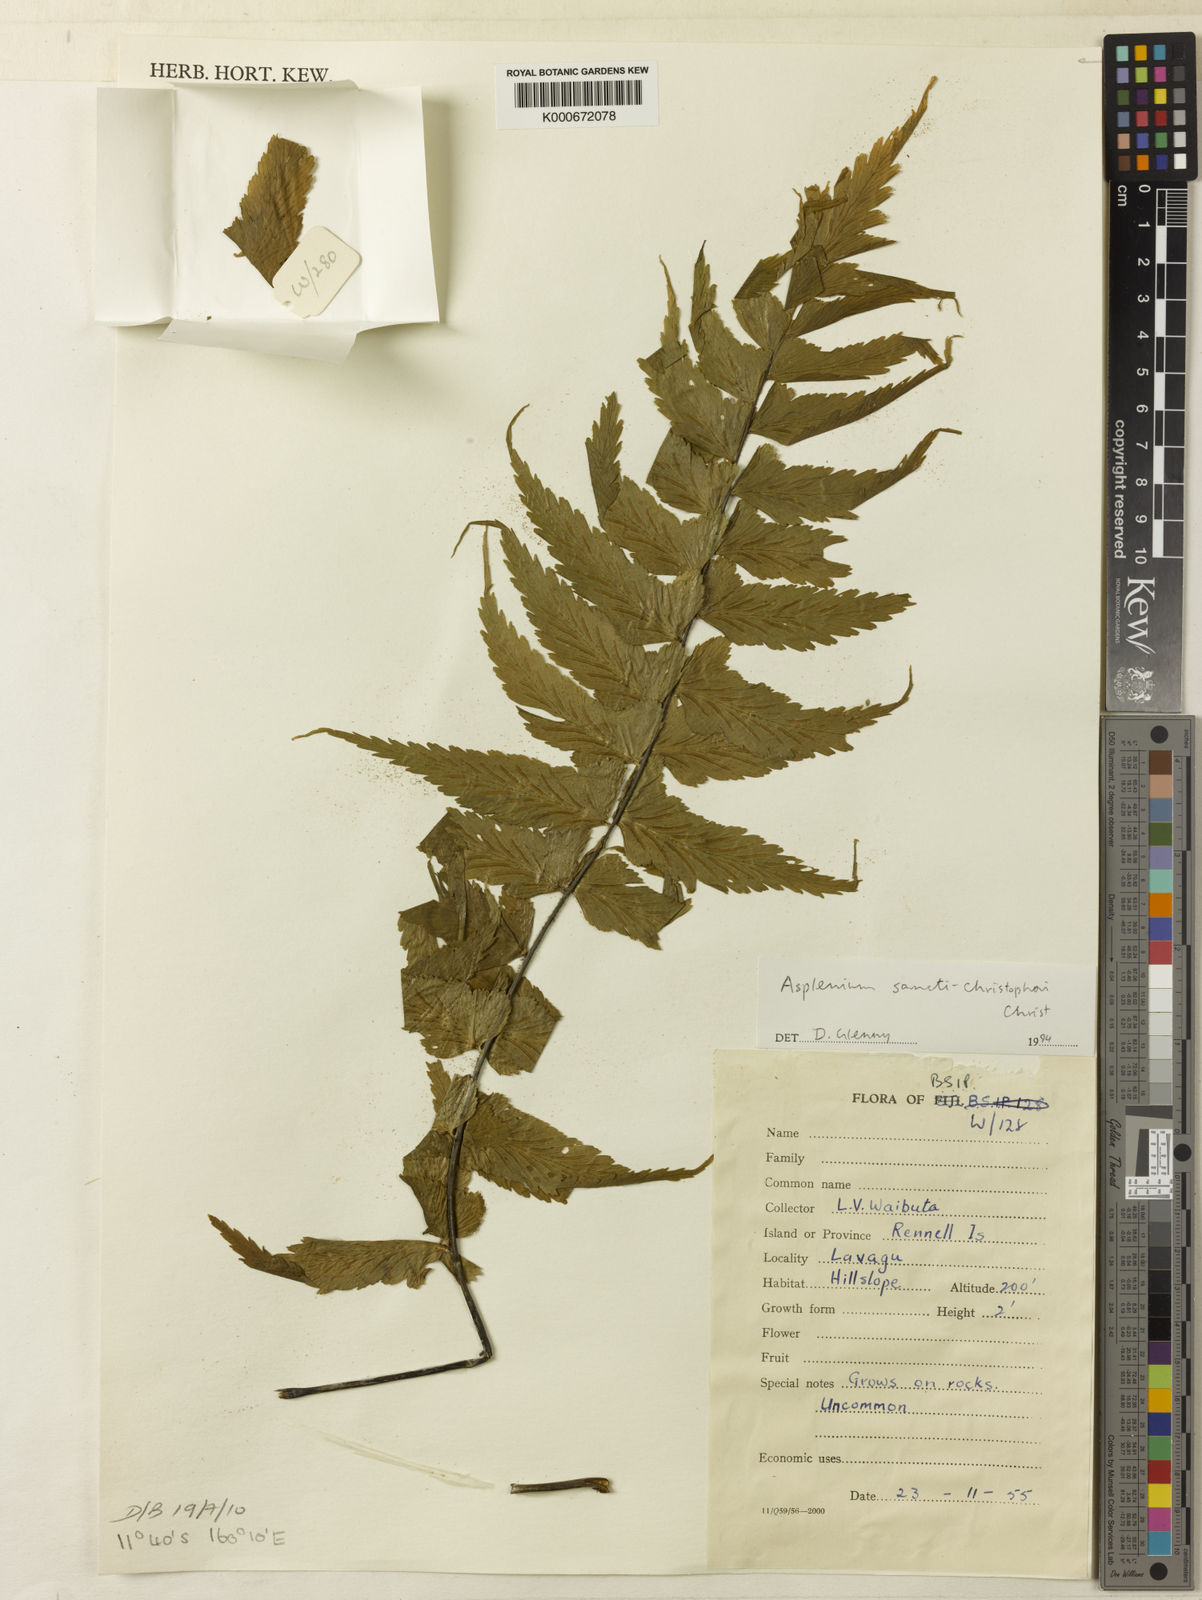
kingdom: Plantae
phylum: Tracheophyta
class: Polypodiopsida
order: Polypodiales
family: Aspleniaceae
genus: Asplenium
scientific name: Asplenium sancti-christofori
